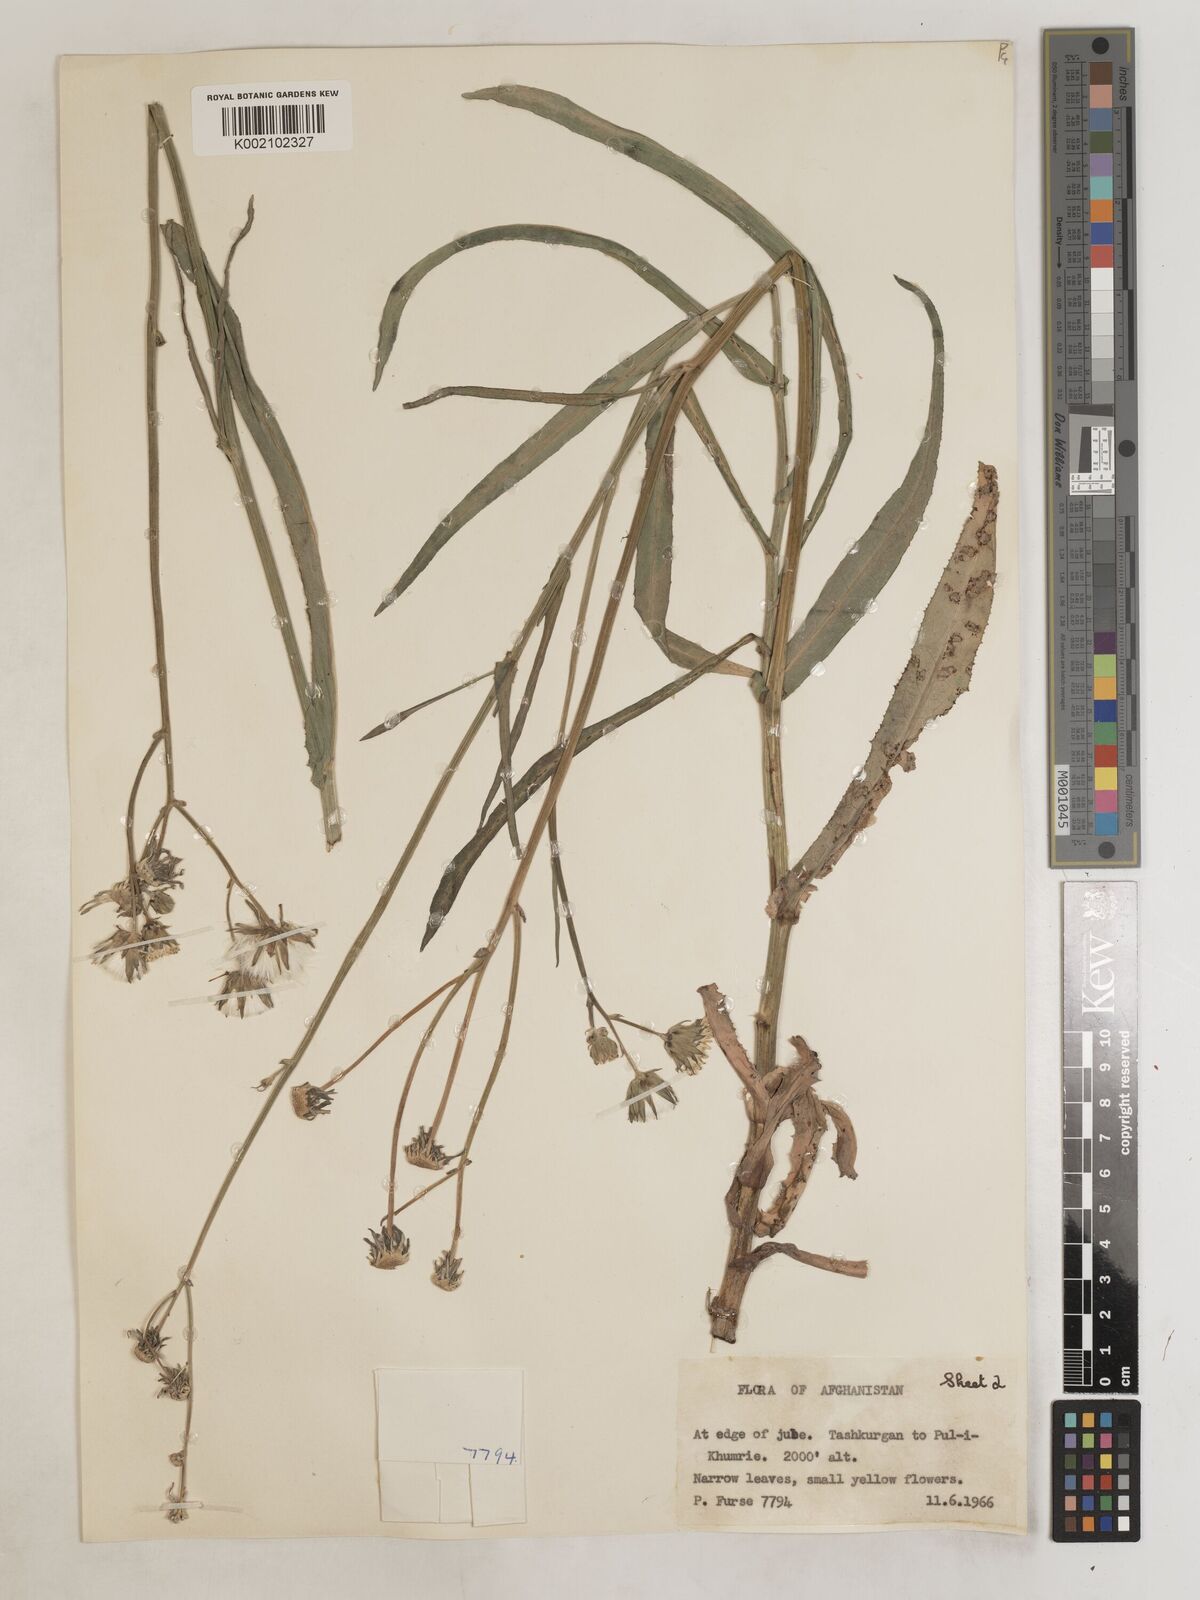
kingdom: Plantae
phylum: Tracheophyta
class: Magnoliopsida
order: Asterales
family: Asteraceae
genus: Sonchus
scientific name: Sonchus maritimus
